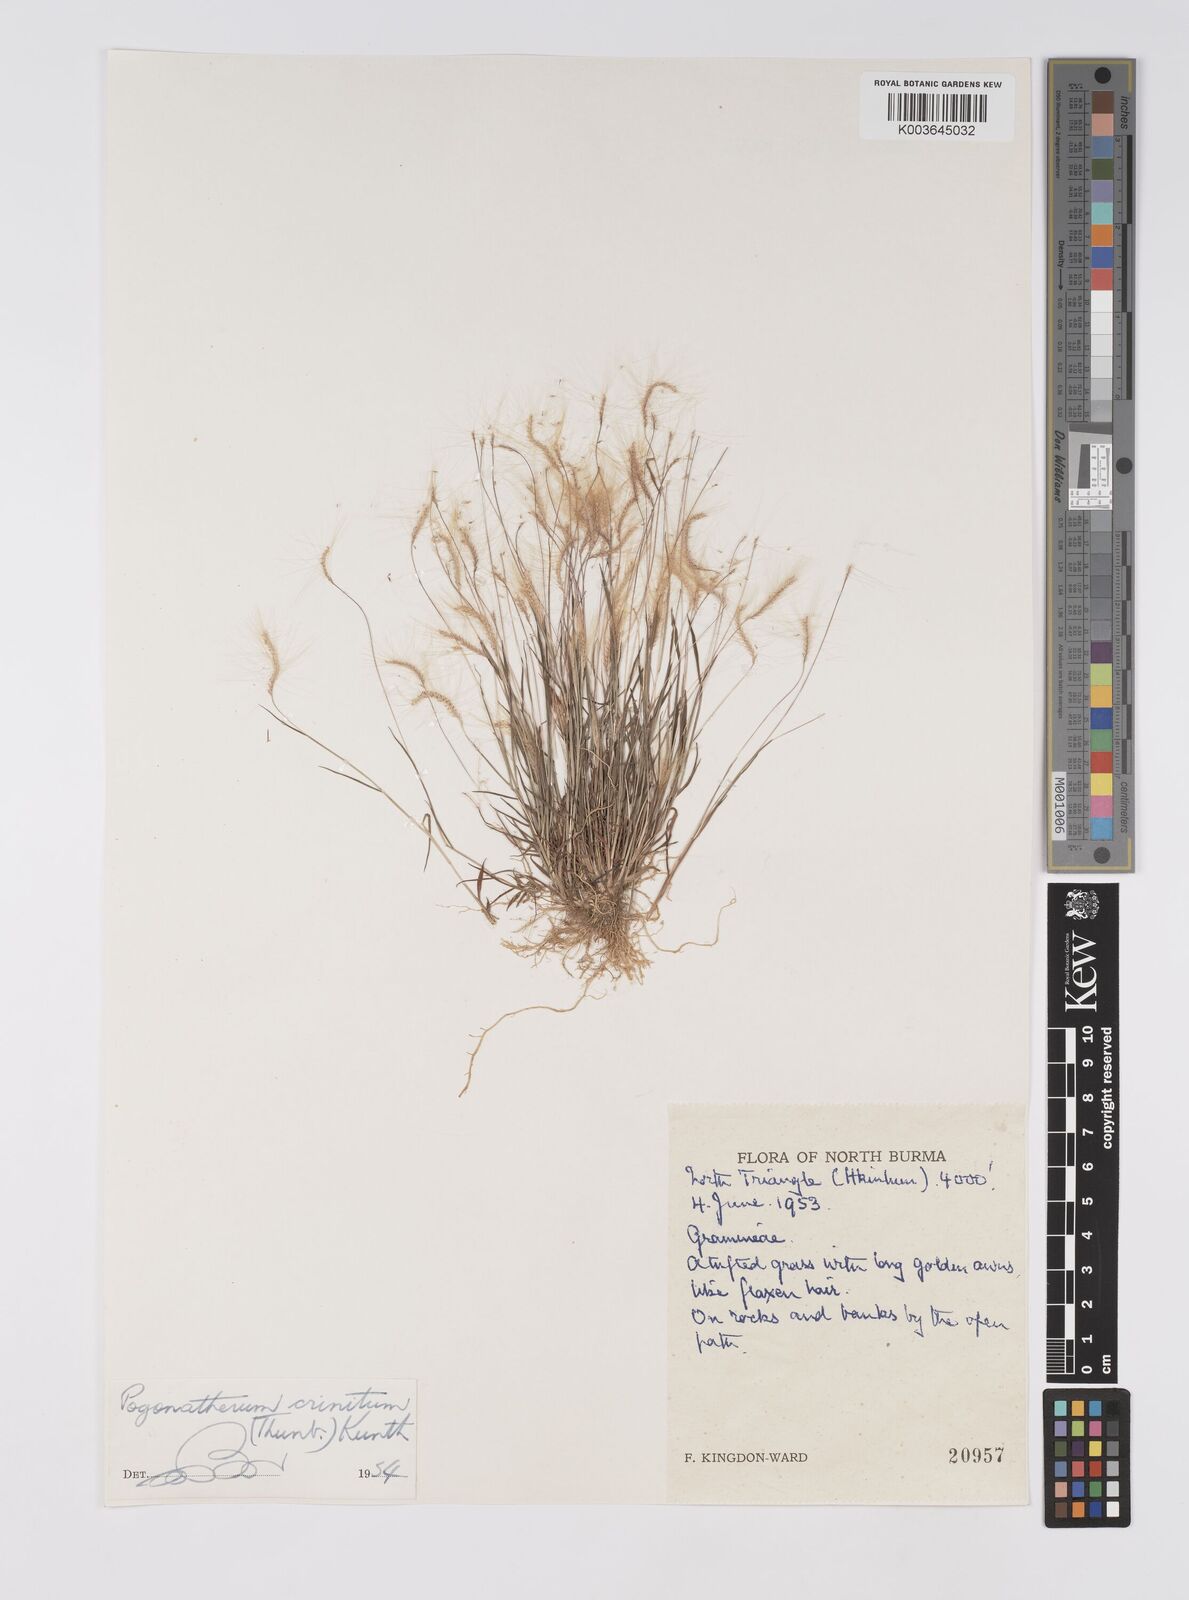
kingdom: Plantae
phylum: Tracheophyta
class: Liliopsida
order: Poales
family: Poaceae
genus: Pogonatherum
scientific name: Pogonatherum crinitum
